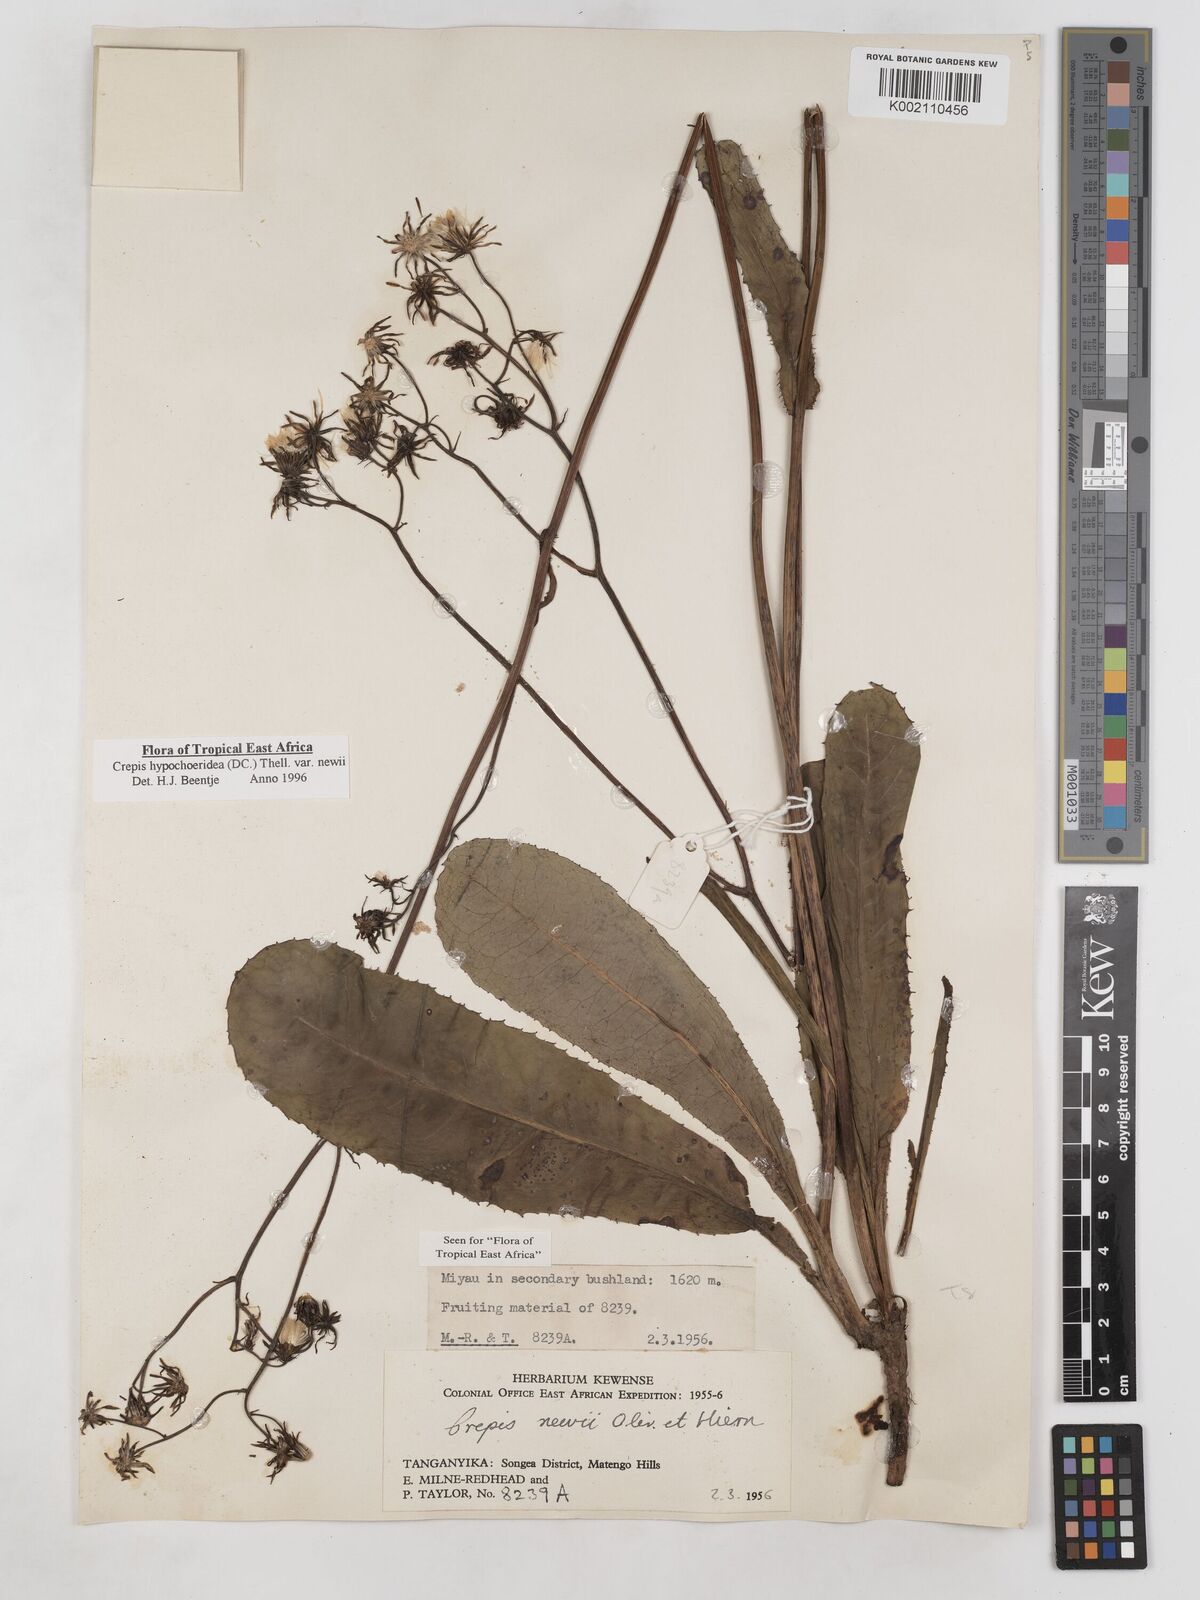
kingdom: Plantae
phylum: Tracheophyta
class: Magnoliopsida
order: Asterales
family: Asteraceae
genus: Crepis
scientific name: Crepis hypochoeridea
